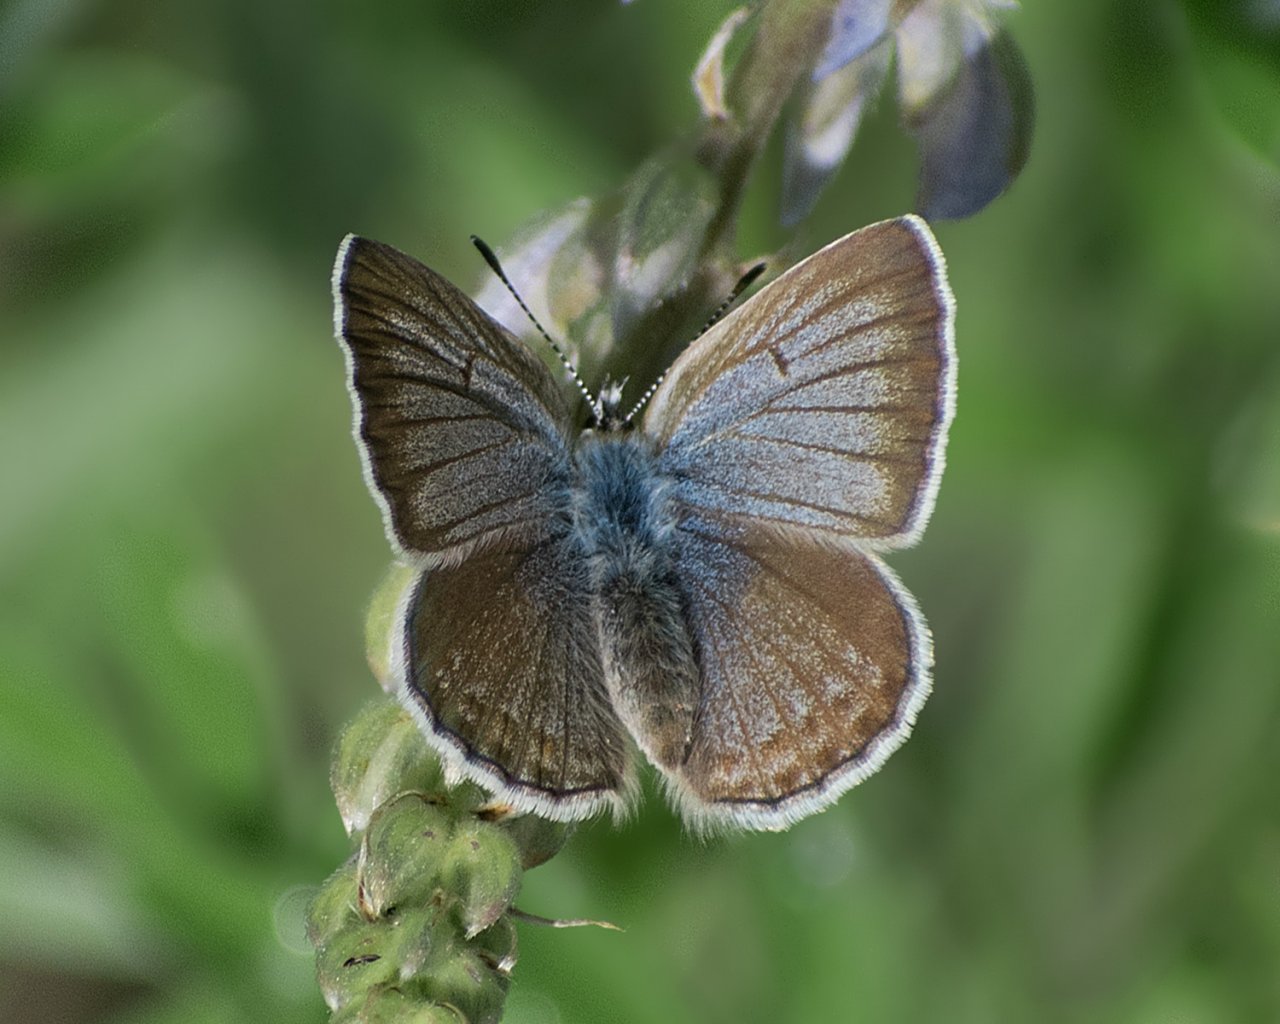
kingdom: Animalia
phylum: Arthropoda
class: Insecta
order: Lepidoptera
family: Lycaenidae
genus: Icaricia
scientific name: Icaricia icarioides
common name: Boisduval's Blue
